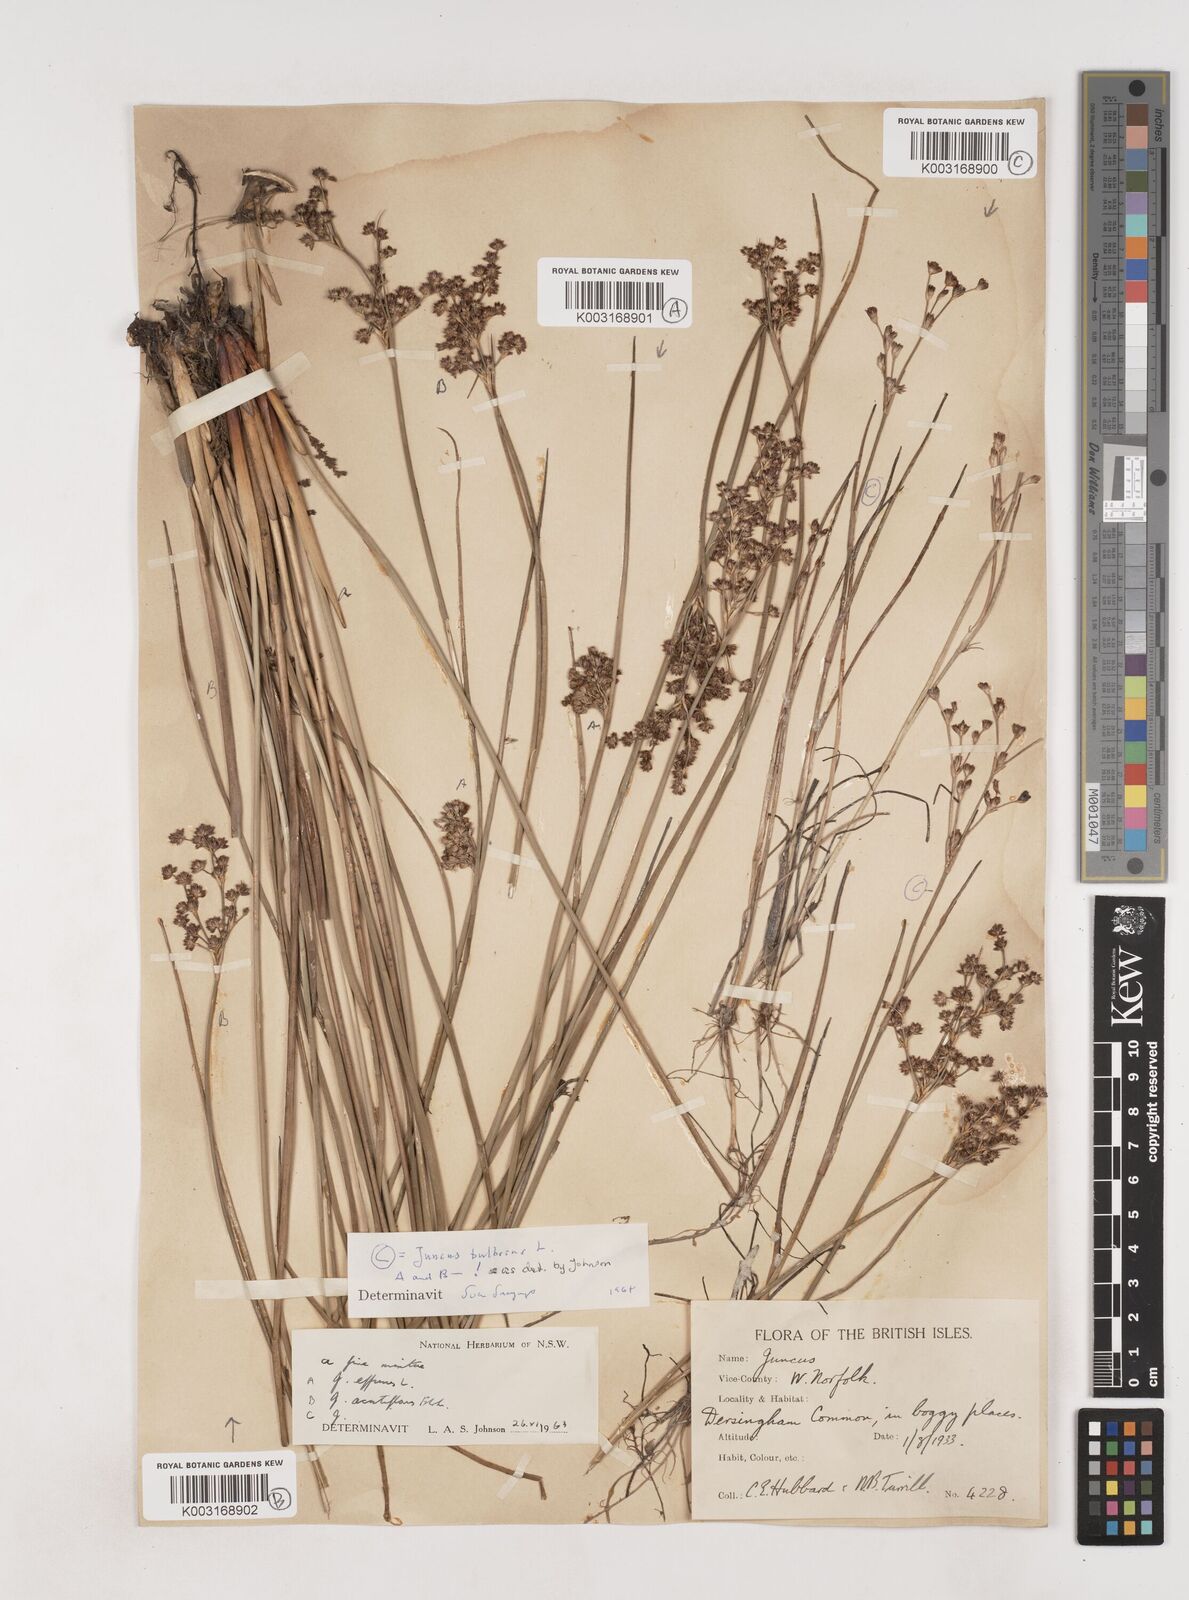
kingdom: Plantae
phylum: Tracheophyta
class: Liliopsida
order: Poales
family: Juncaceae
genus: Juncus
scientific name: Juncus bulbosus
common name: Bulbous rush
